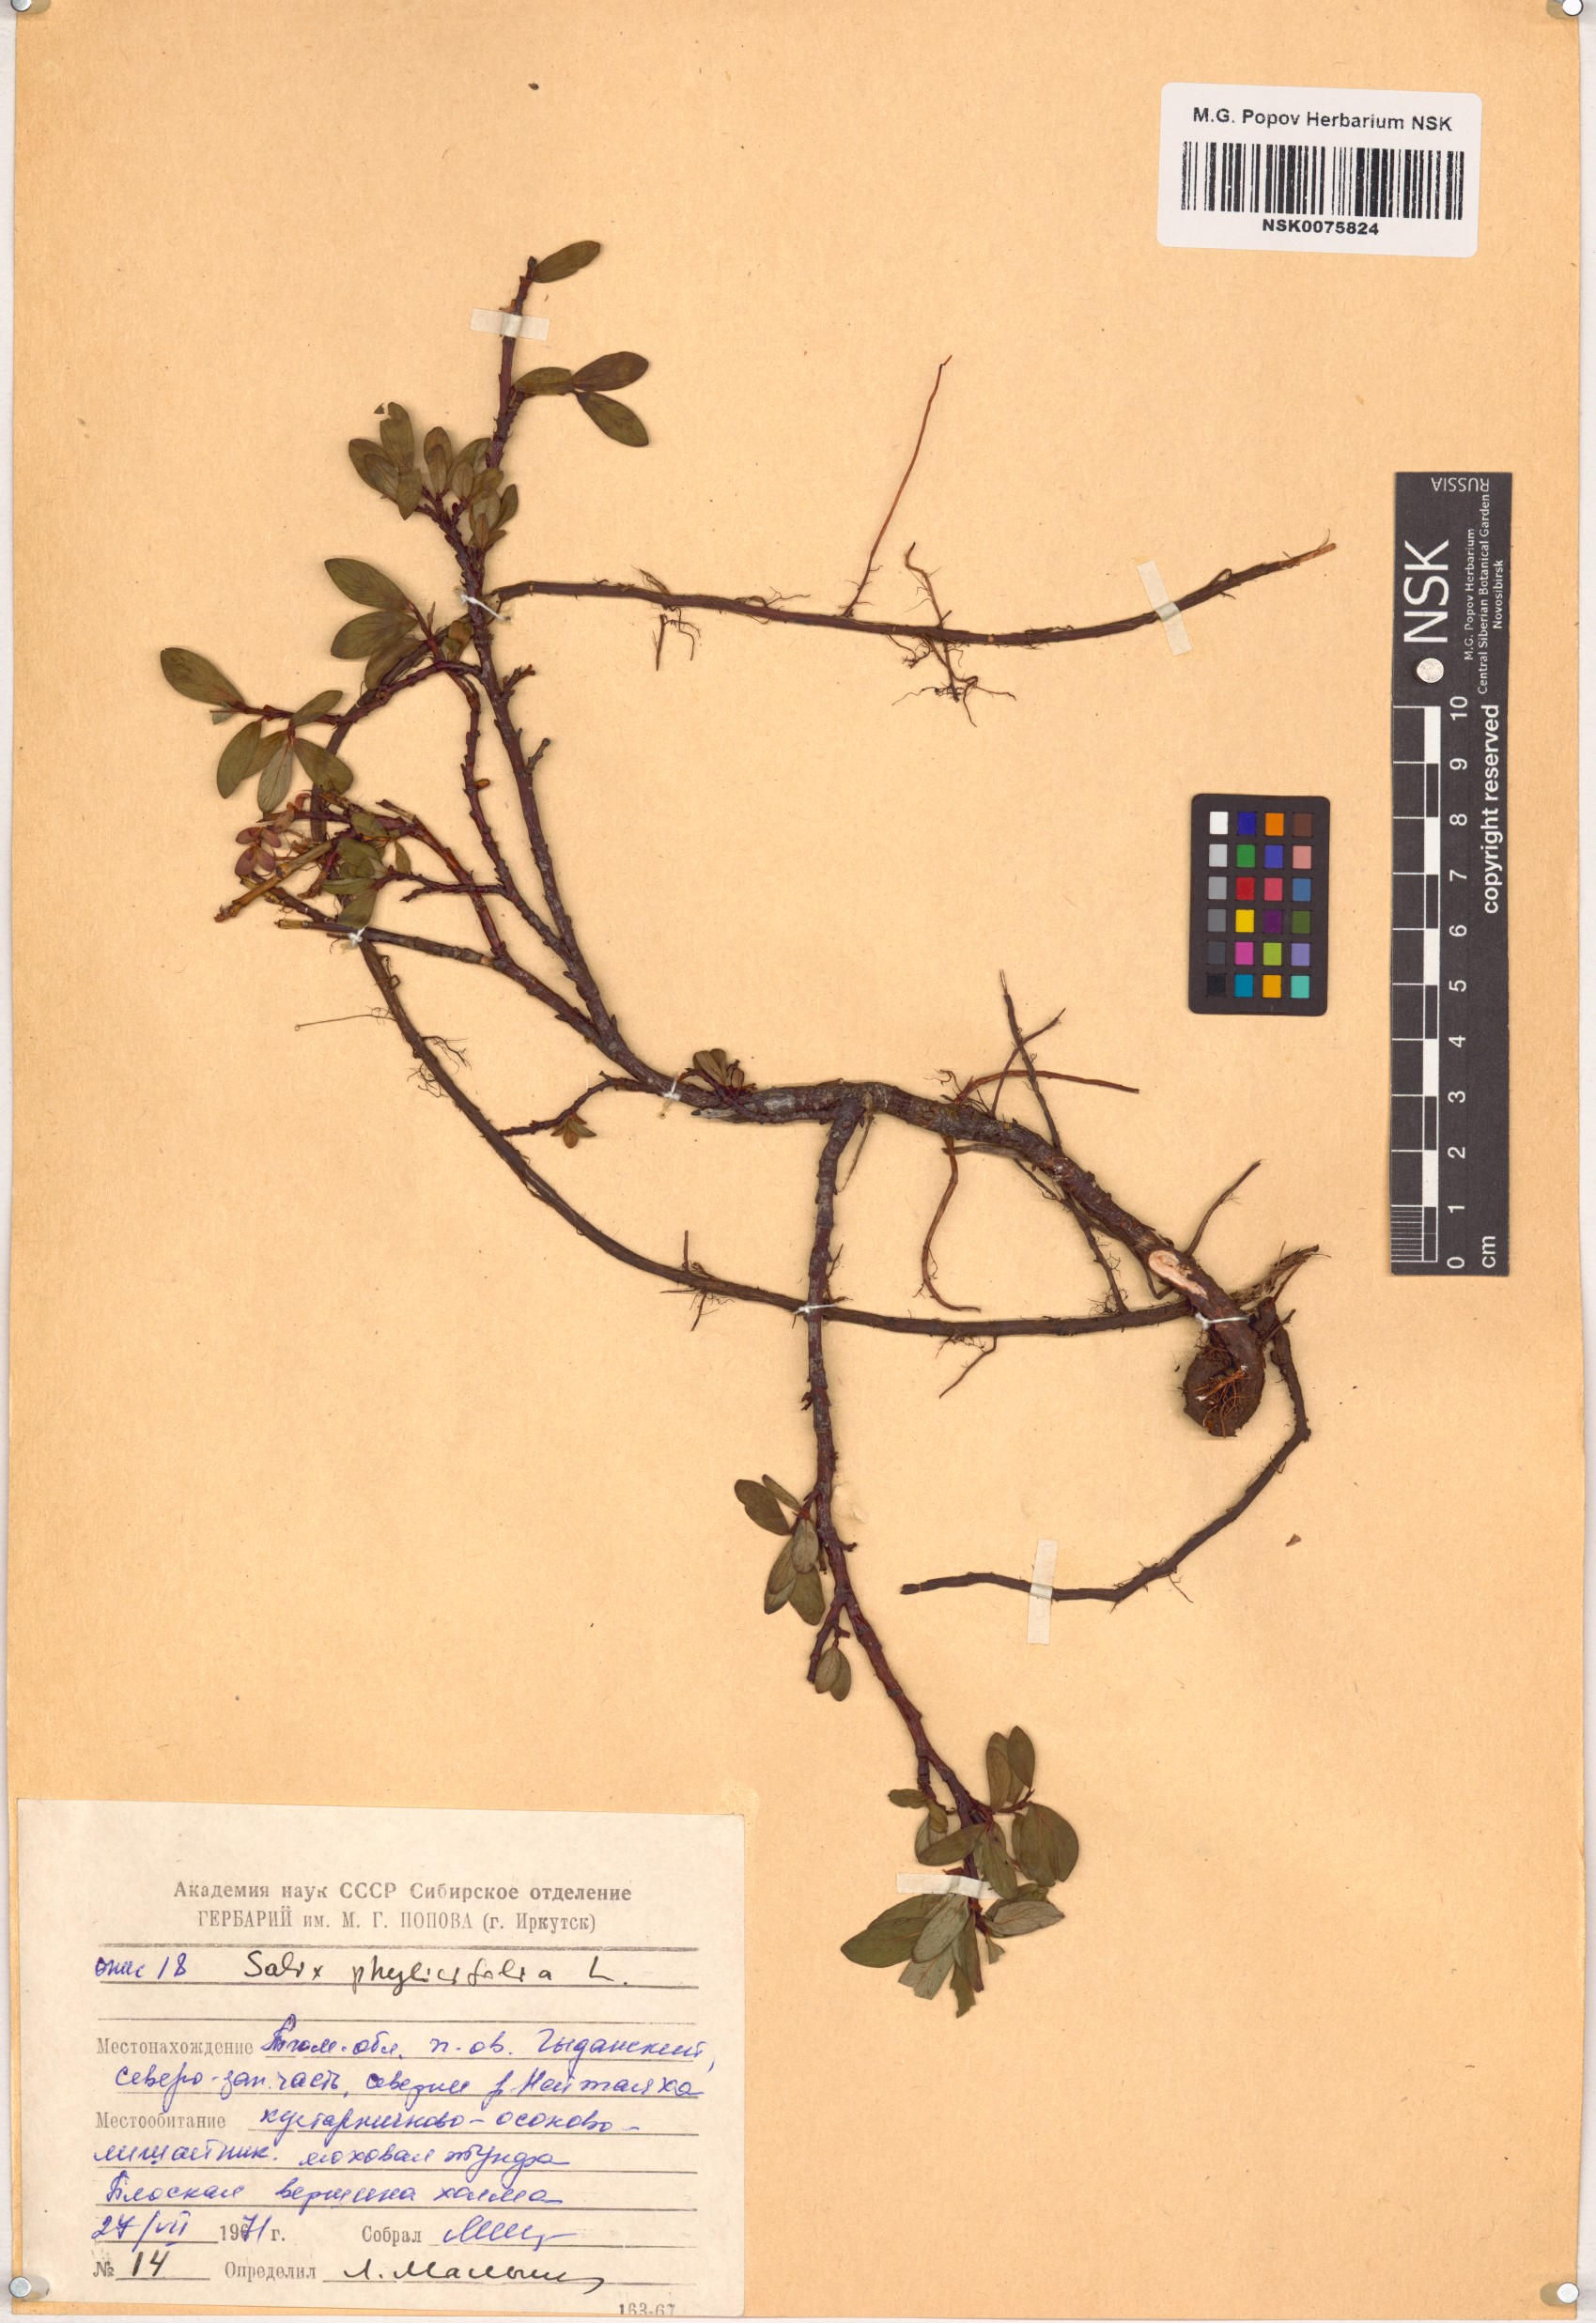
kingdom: Plantae
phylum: Tracheophyta
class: Magnoliopsida
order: Malpighiales
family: Salicaceae
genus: Salix
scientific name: Salix phylicifolia
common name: Tea-leaved willow
